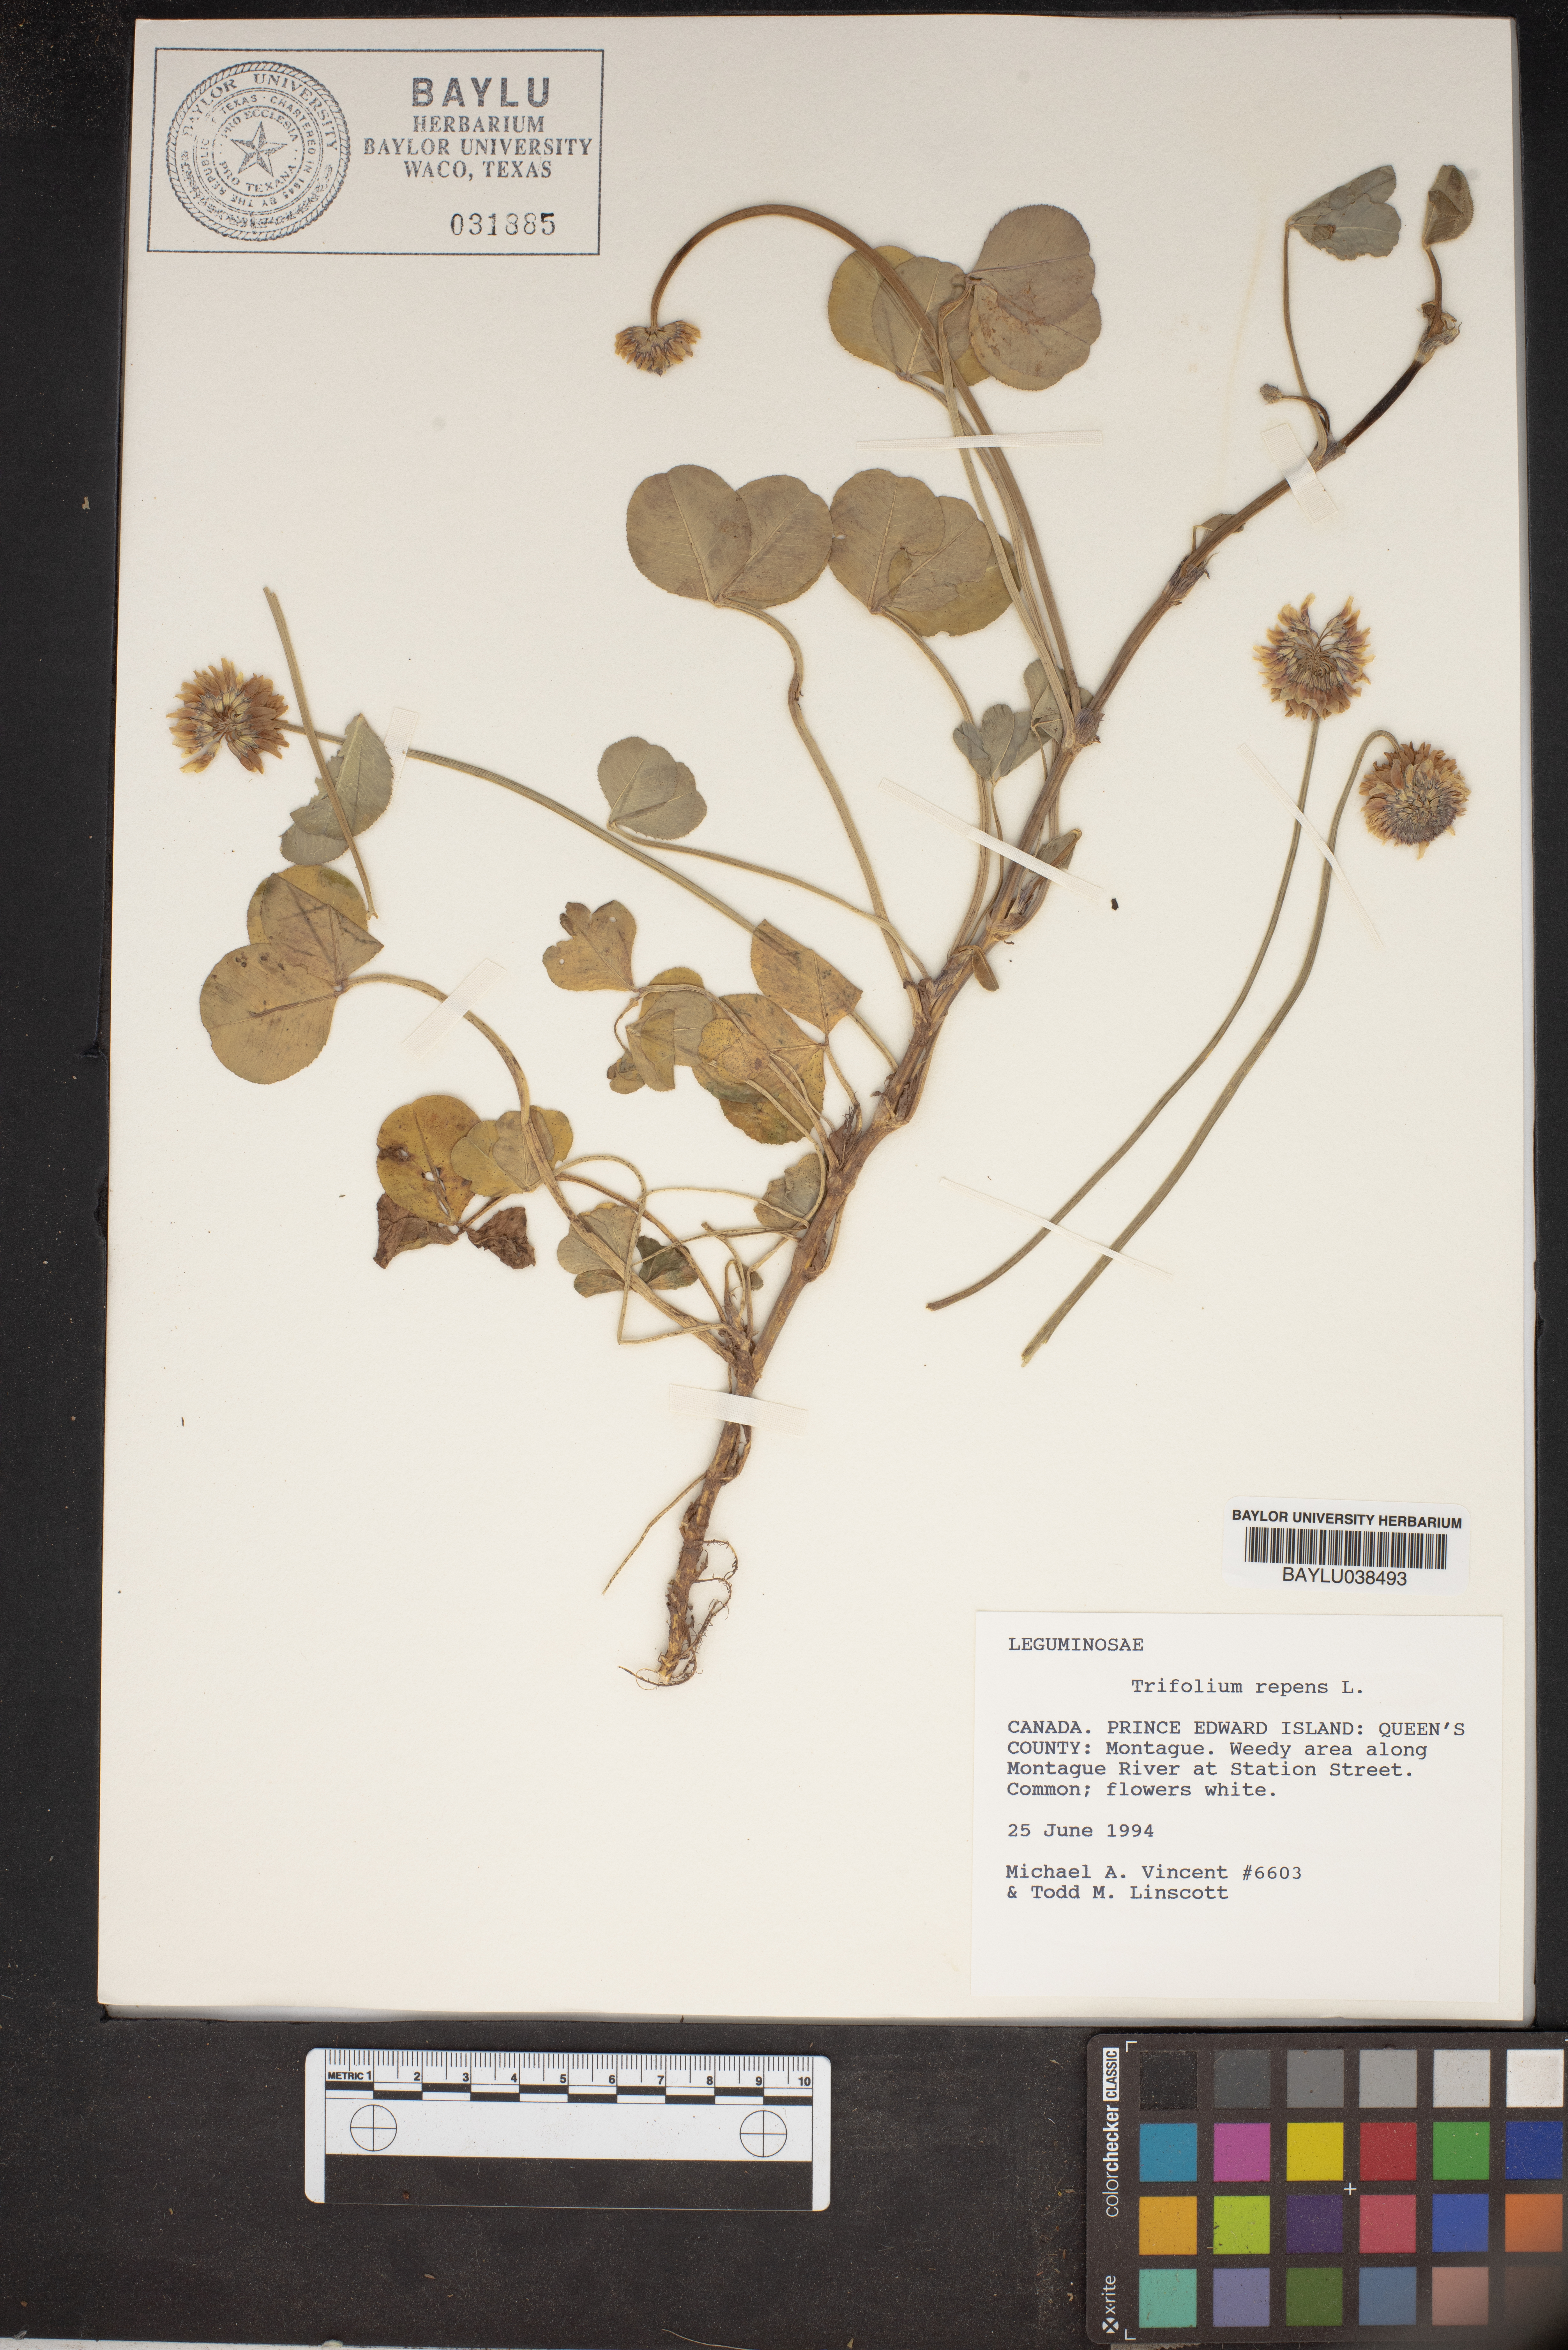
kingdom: Plantae
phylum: Tracheophyta
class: Magnoliopsida
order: Fabales
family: Fabaceae
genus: Trifolium
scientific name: Trifolium repens
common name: White clover
